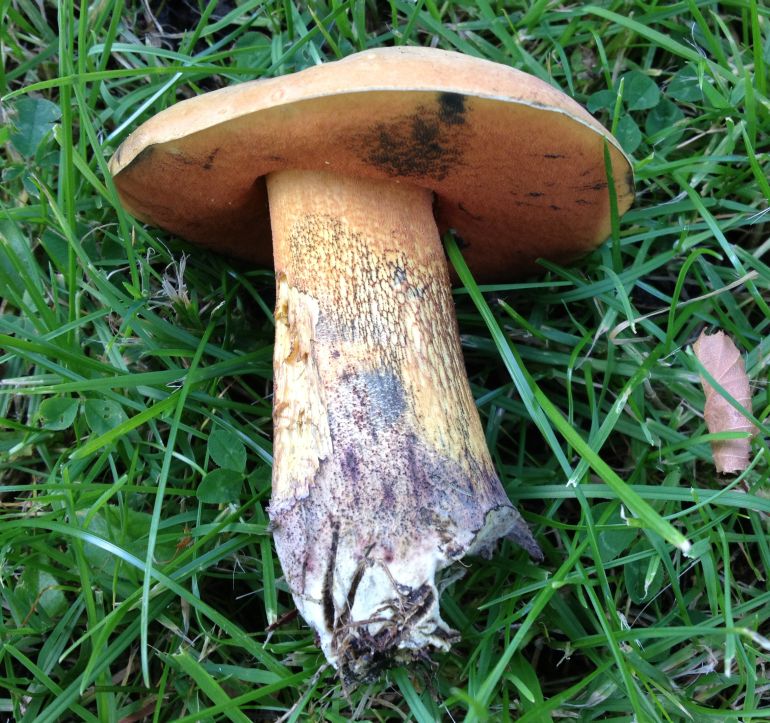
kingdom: Fungi
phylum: Basidiomycota
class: Agaricomycetes
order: Boletales
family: Boletaceae
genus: Suillellus
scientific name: Suillellus luridus
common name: netstokket indigorørhat
